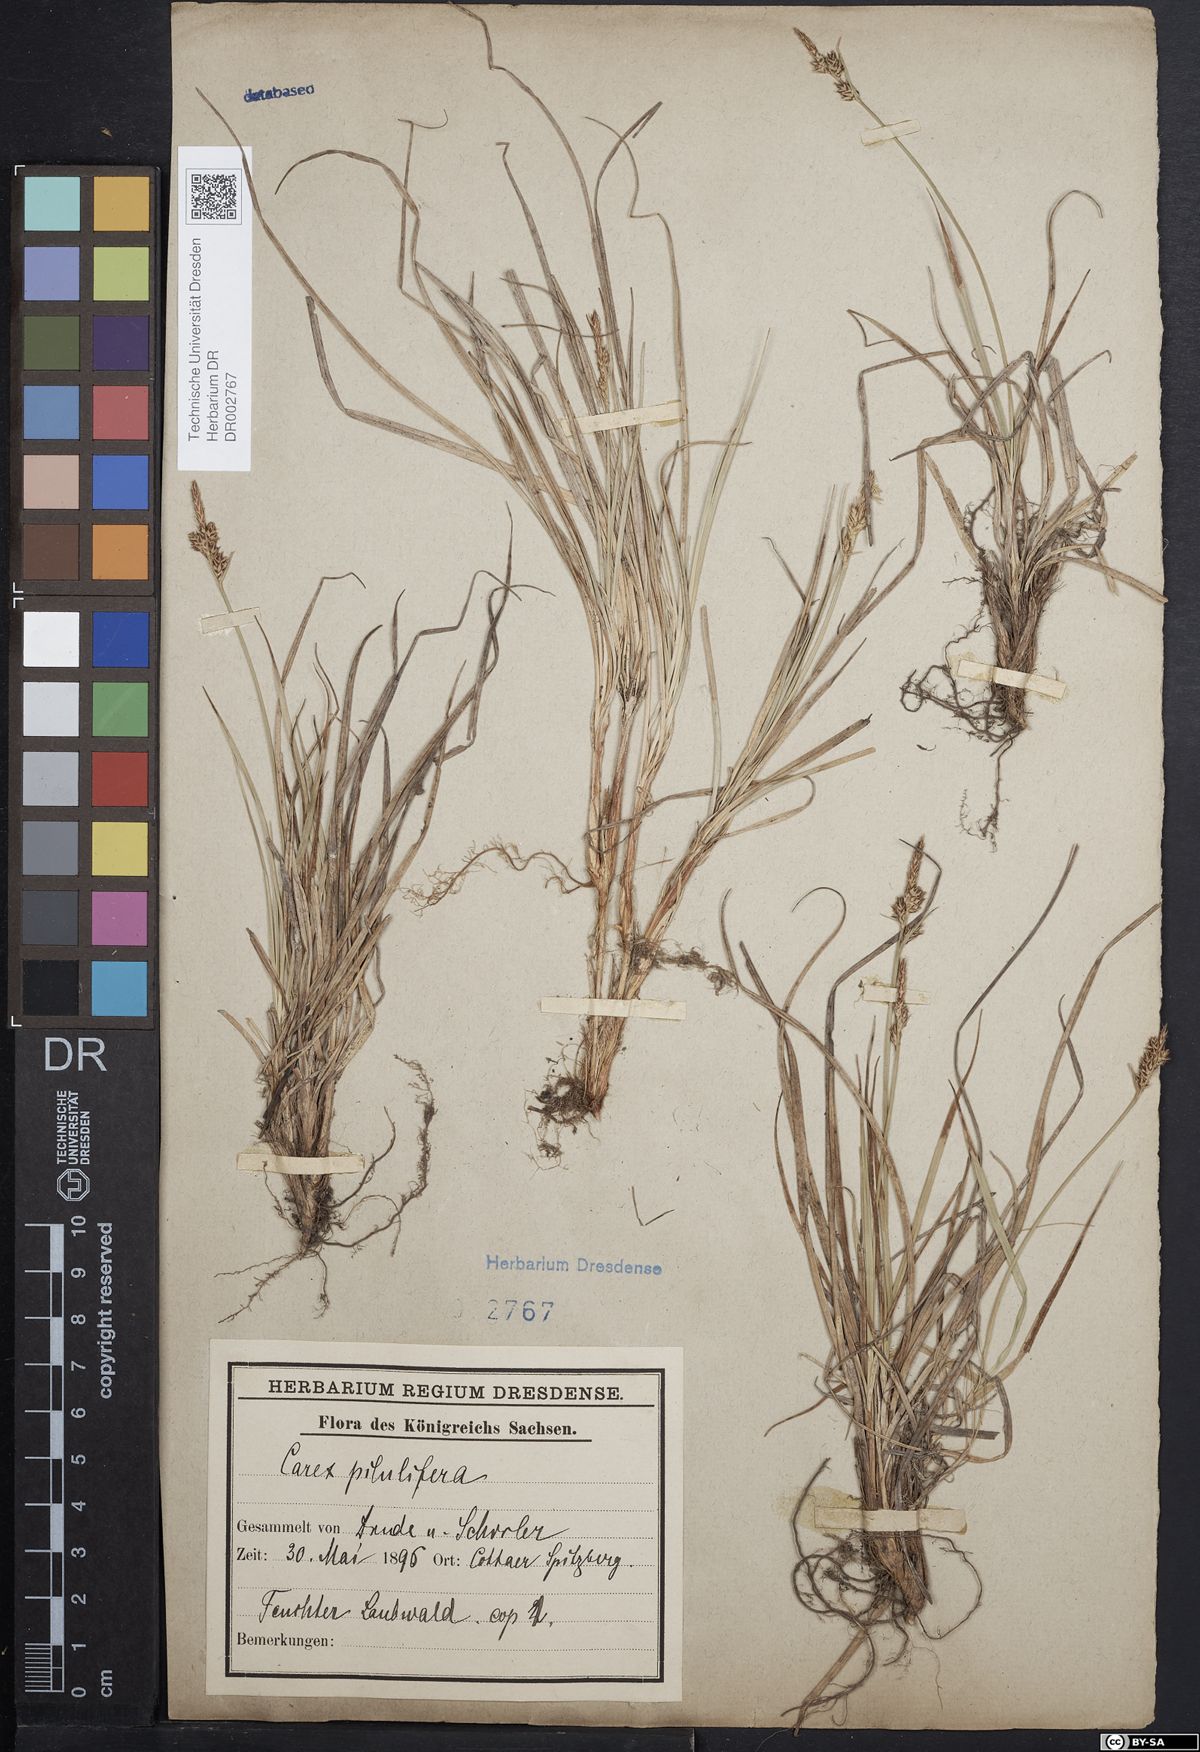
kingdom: Plantae
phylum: Tracheophyta
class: Liliopsida
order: Poales
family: Cyperaceae
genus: Carex
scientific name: Carex caryophyllea
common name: Spring sedge
